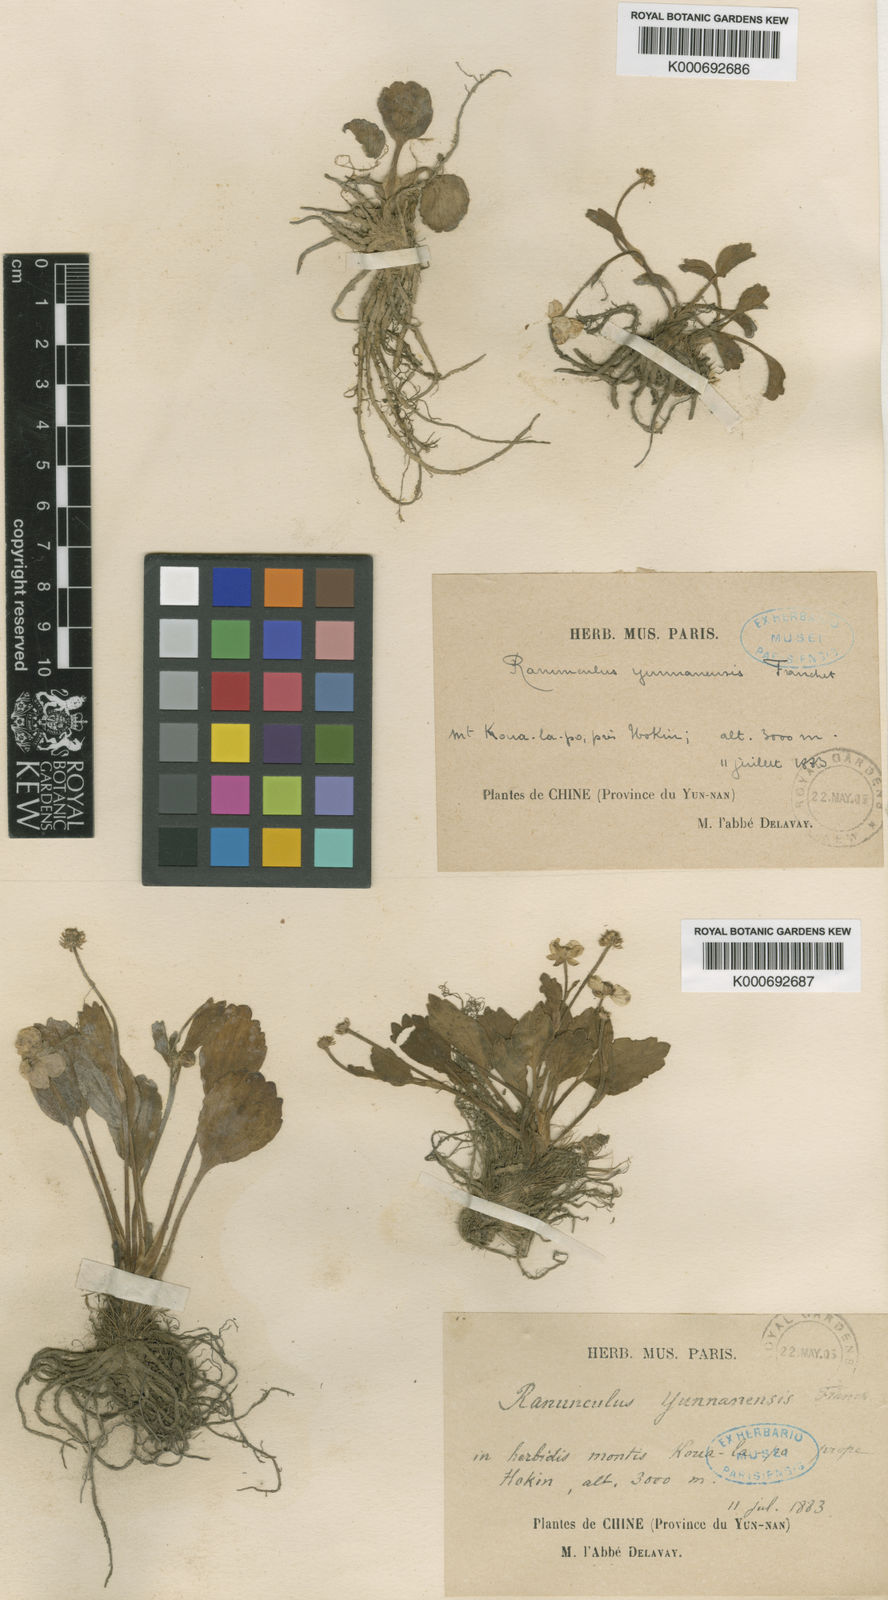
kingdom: Plantae
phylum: Tracheophyta
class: Magnoliopsida
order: Ranunculales
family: Ranunculaceae
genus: Ranunculus
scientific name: Ranunculus yunnanensis
